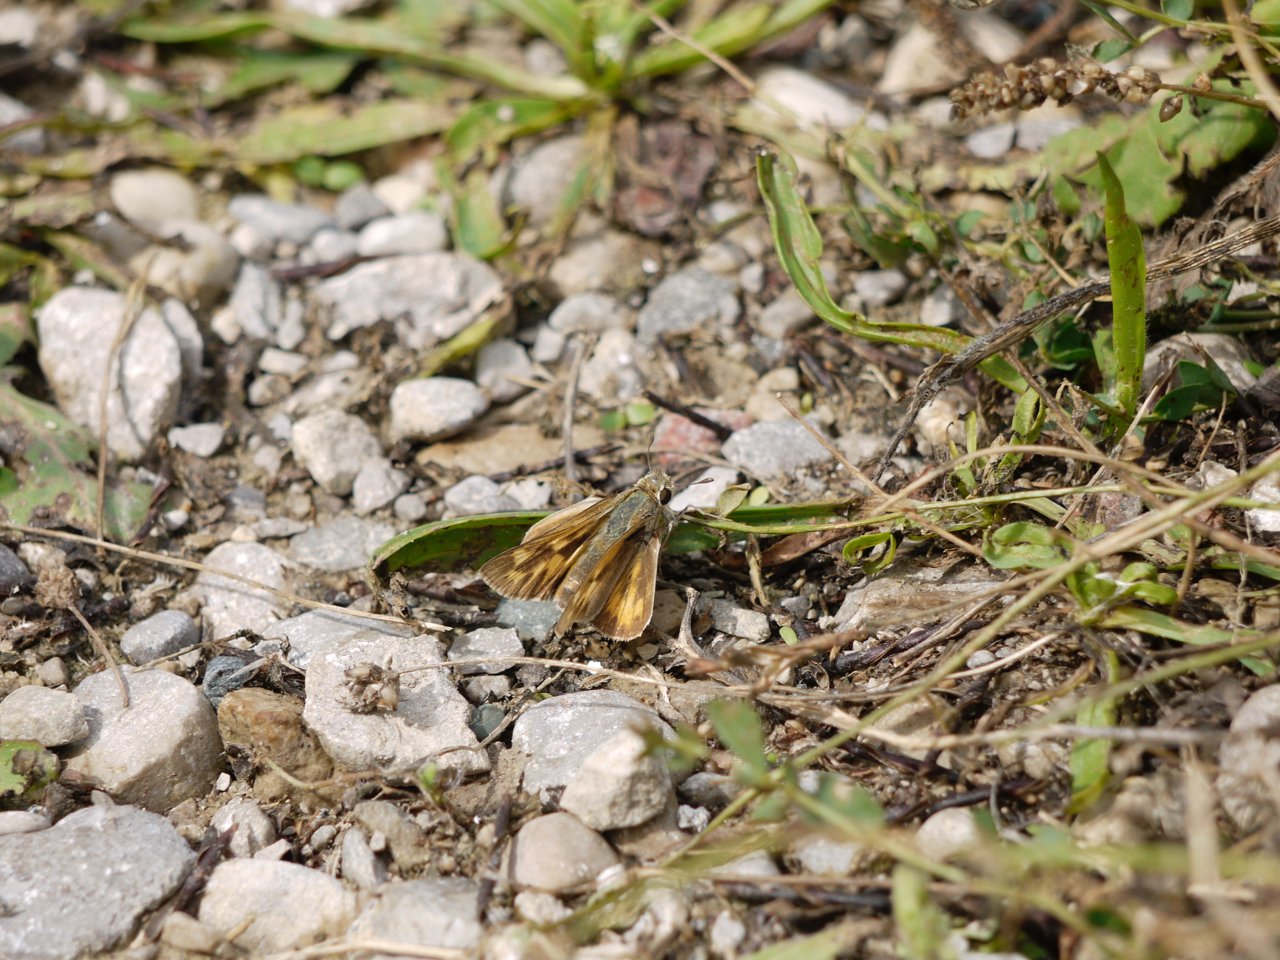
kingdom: Animalia
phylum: Arthropoda
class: Insecta
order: Lepidoptera
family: Hesperiidae
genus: Hylephila
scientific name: Hylephila phyleus
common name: Fiery Skipper
